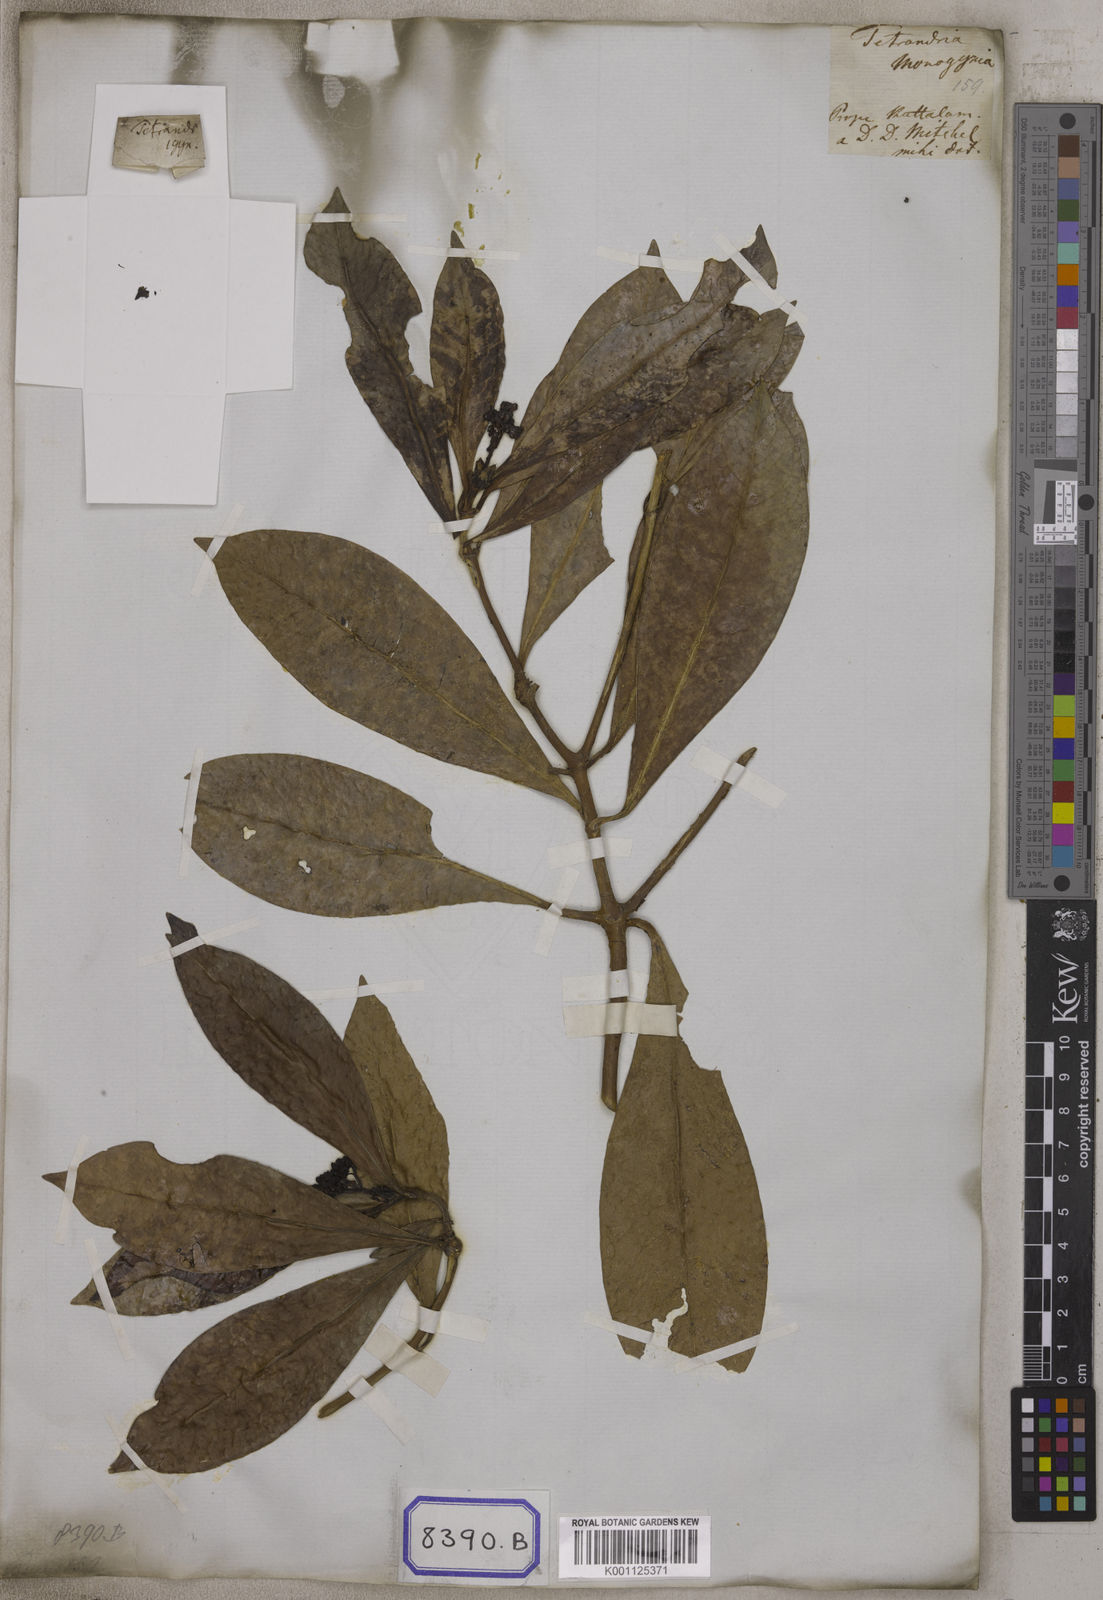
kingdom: Plantae
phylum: Tracheophyta
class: Magnoliopsida
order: Gentianales
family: Rubiaceae
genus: Psychotria
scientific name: Psychotria
